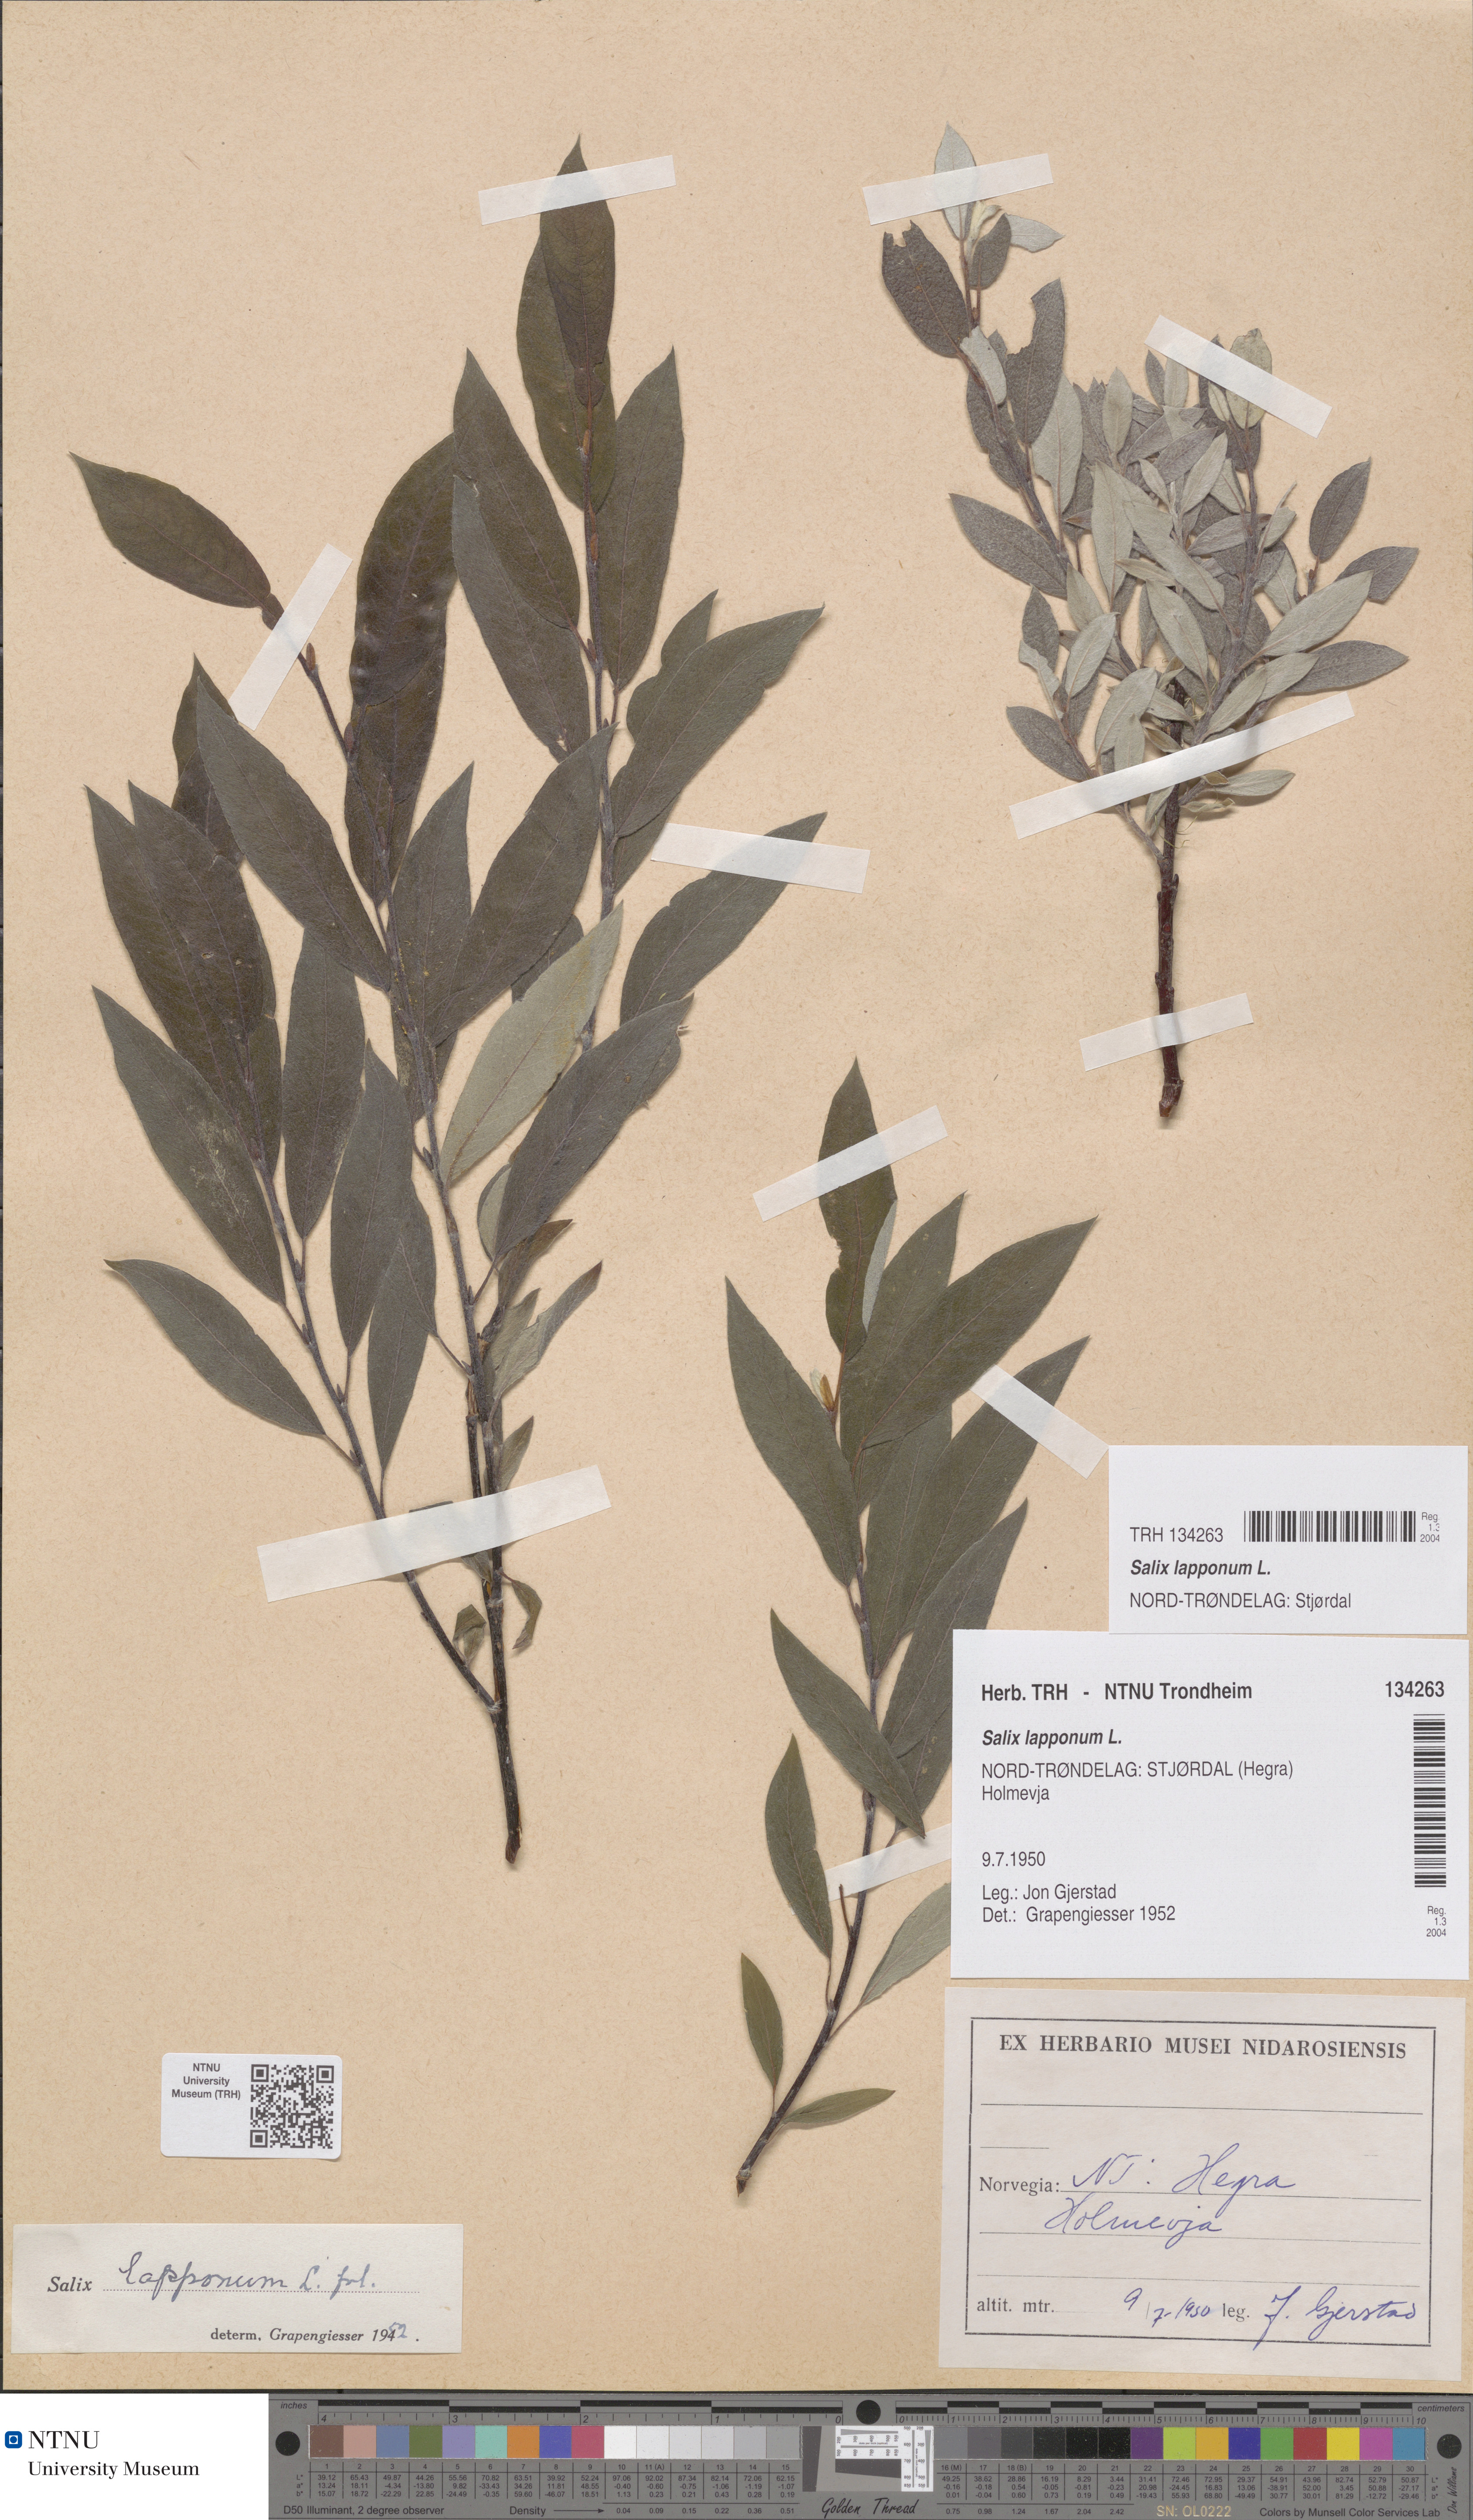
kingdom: Plantae
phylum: Tracheophyta
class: Magnoliopsida
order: Malpighiales
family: Salicaceae
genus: Salix
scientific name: Salix lapponum
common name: Downy willow
